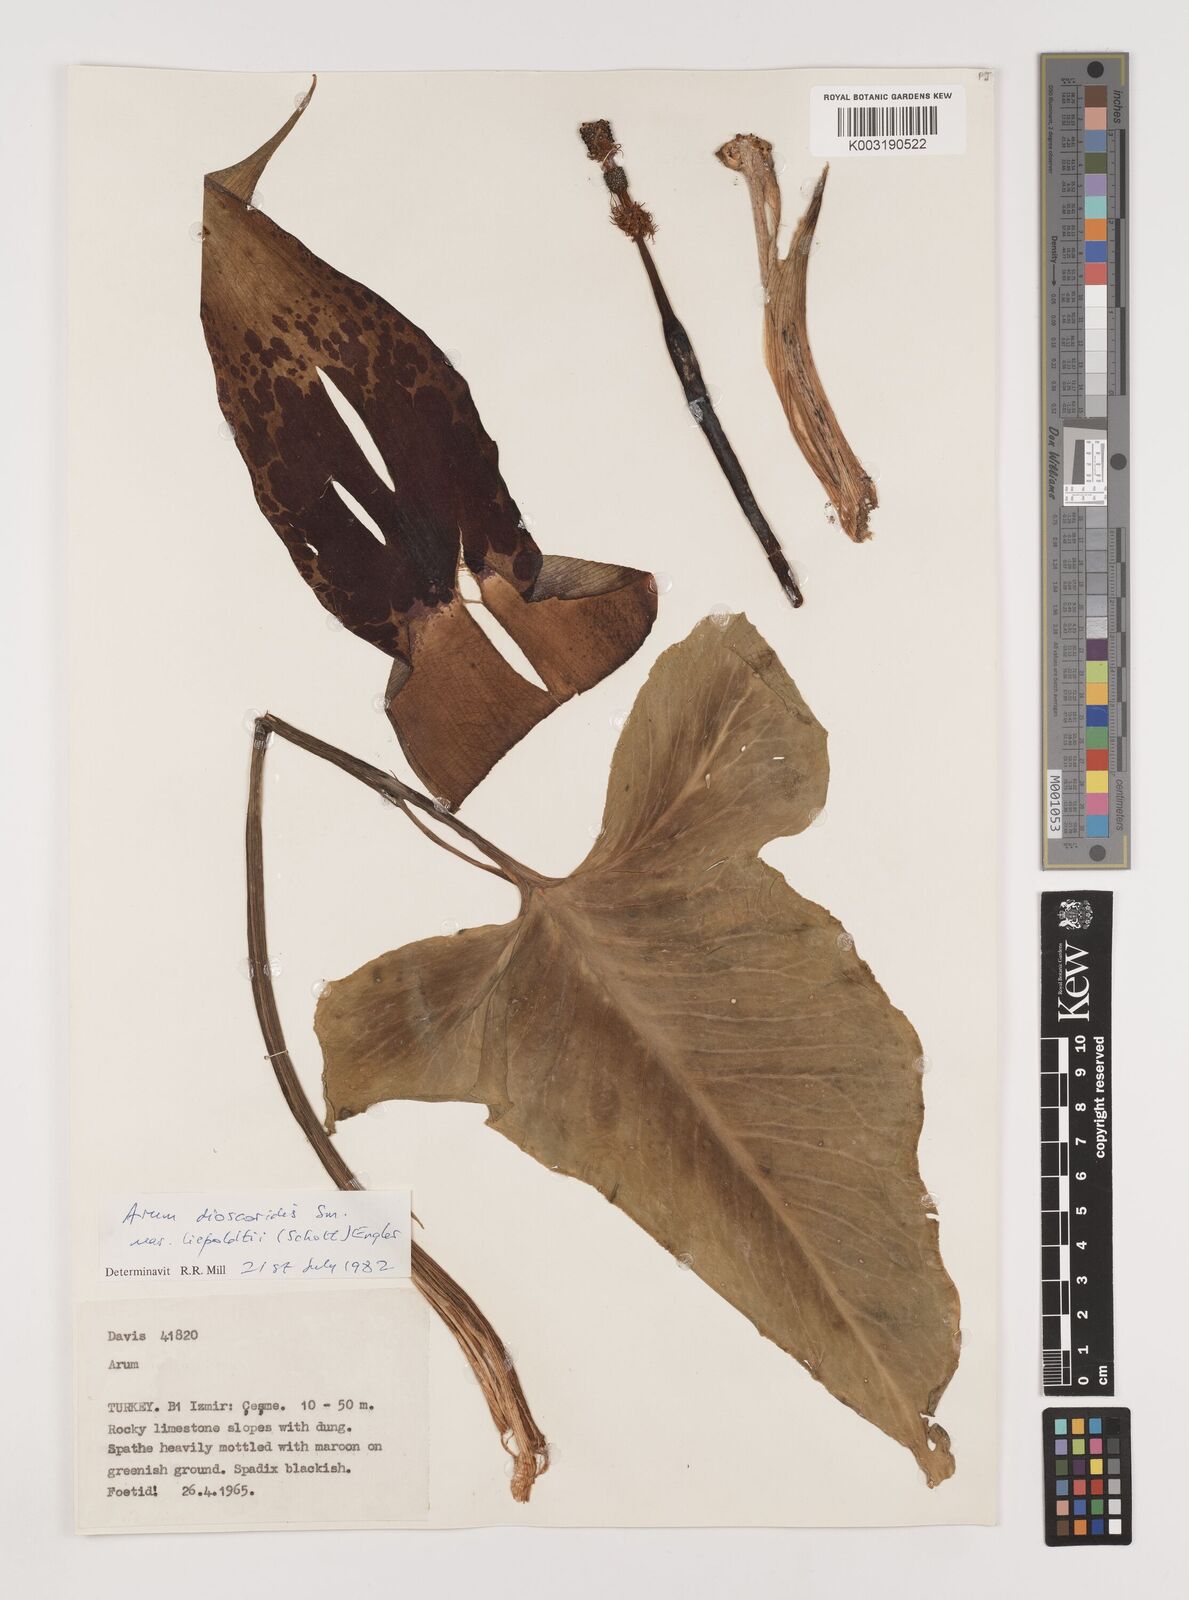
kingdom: Plantae
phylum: Tracheophyta
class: Liliopsida
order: Alismatales
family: Araceae
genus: Arum
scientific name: Arum dioscoridis
